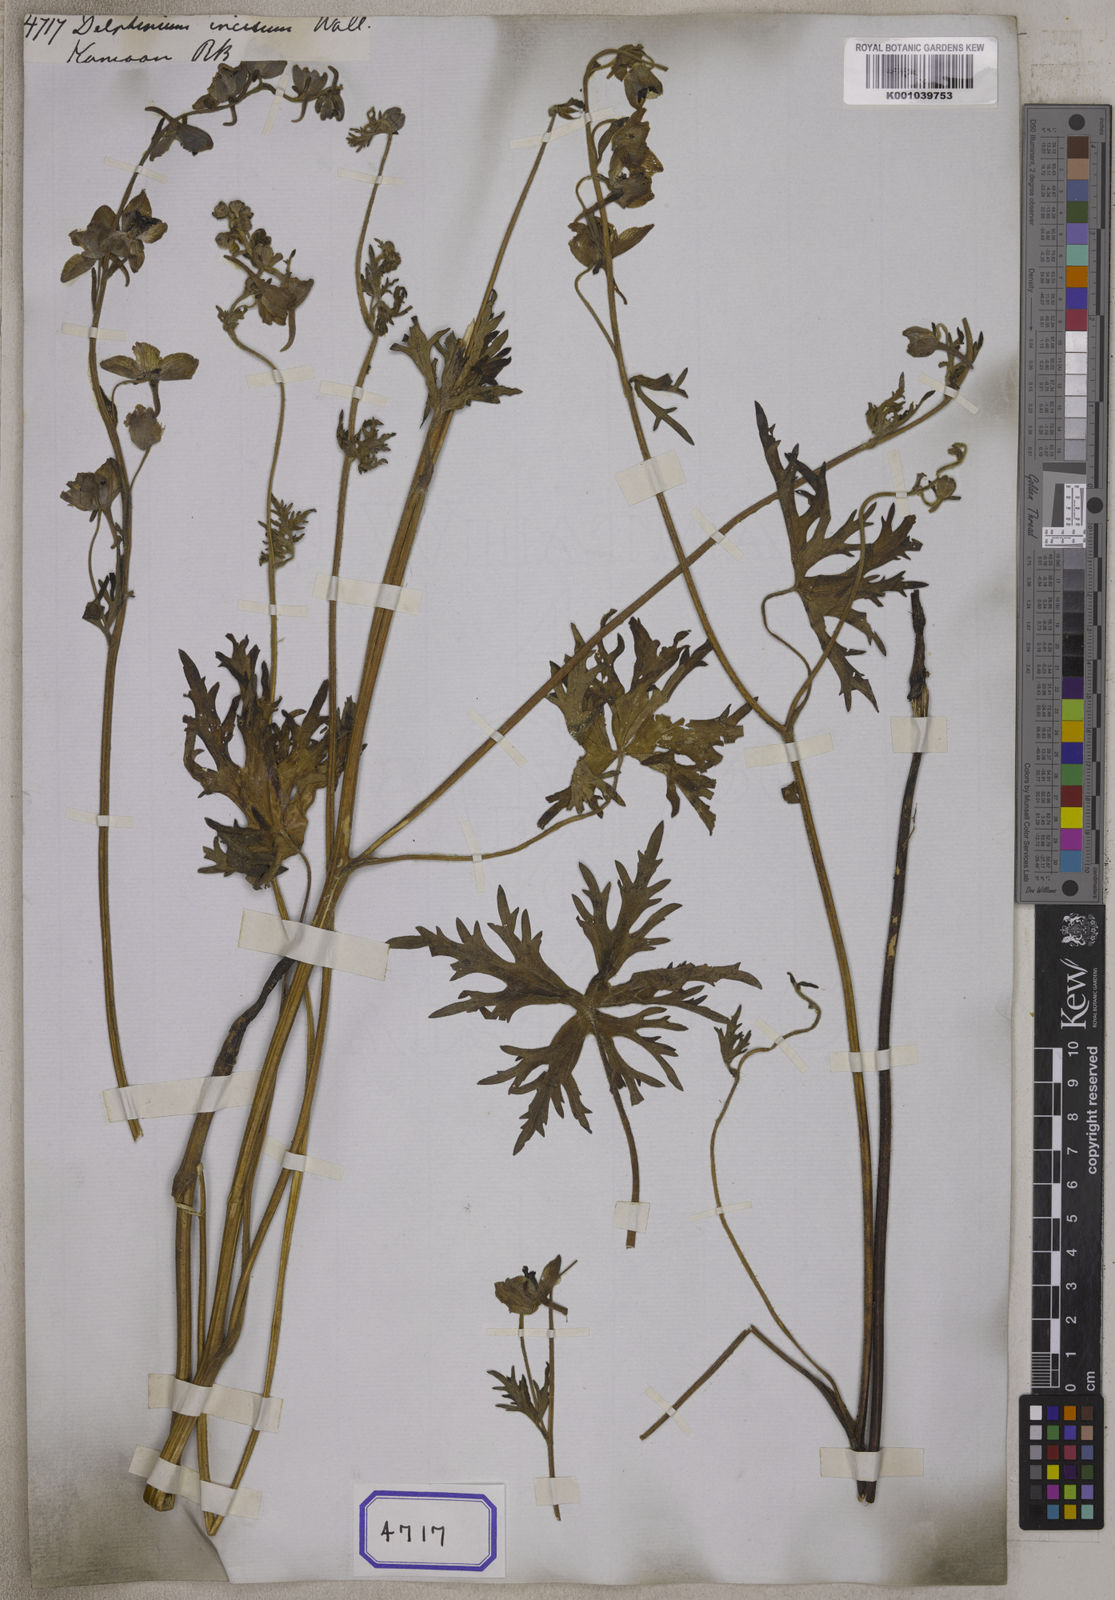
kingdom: Plantae
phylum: Tracheophyta
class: Magnoliopsida
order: Ranunculales
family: Ranunculaceae
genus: Delphinium
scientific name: Delphinium
